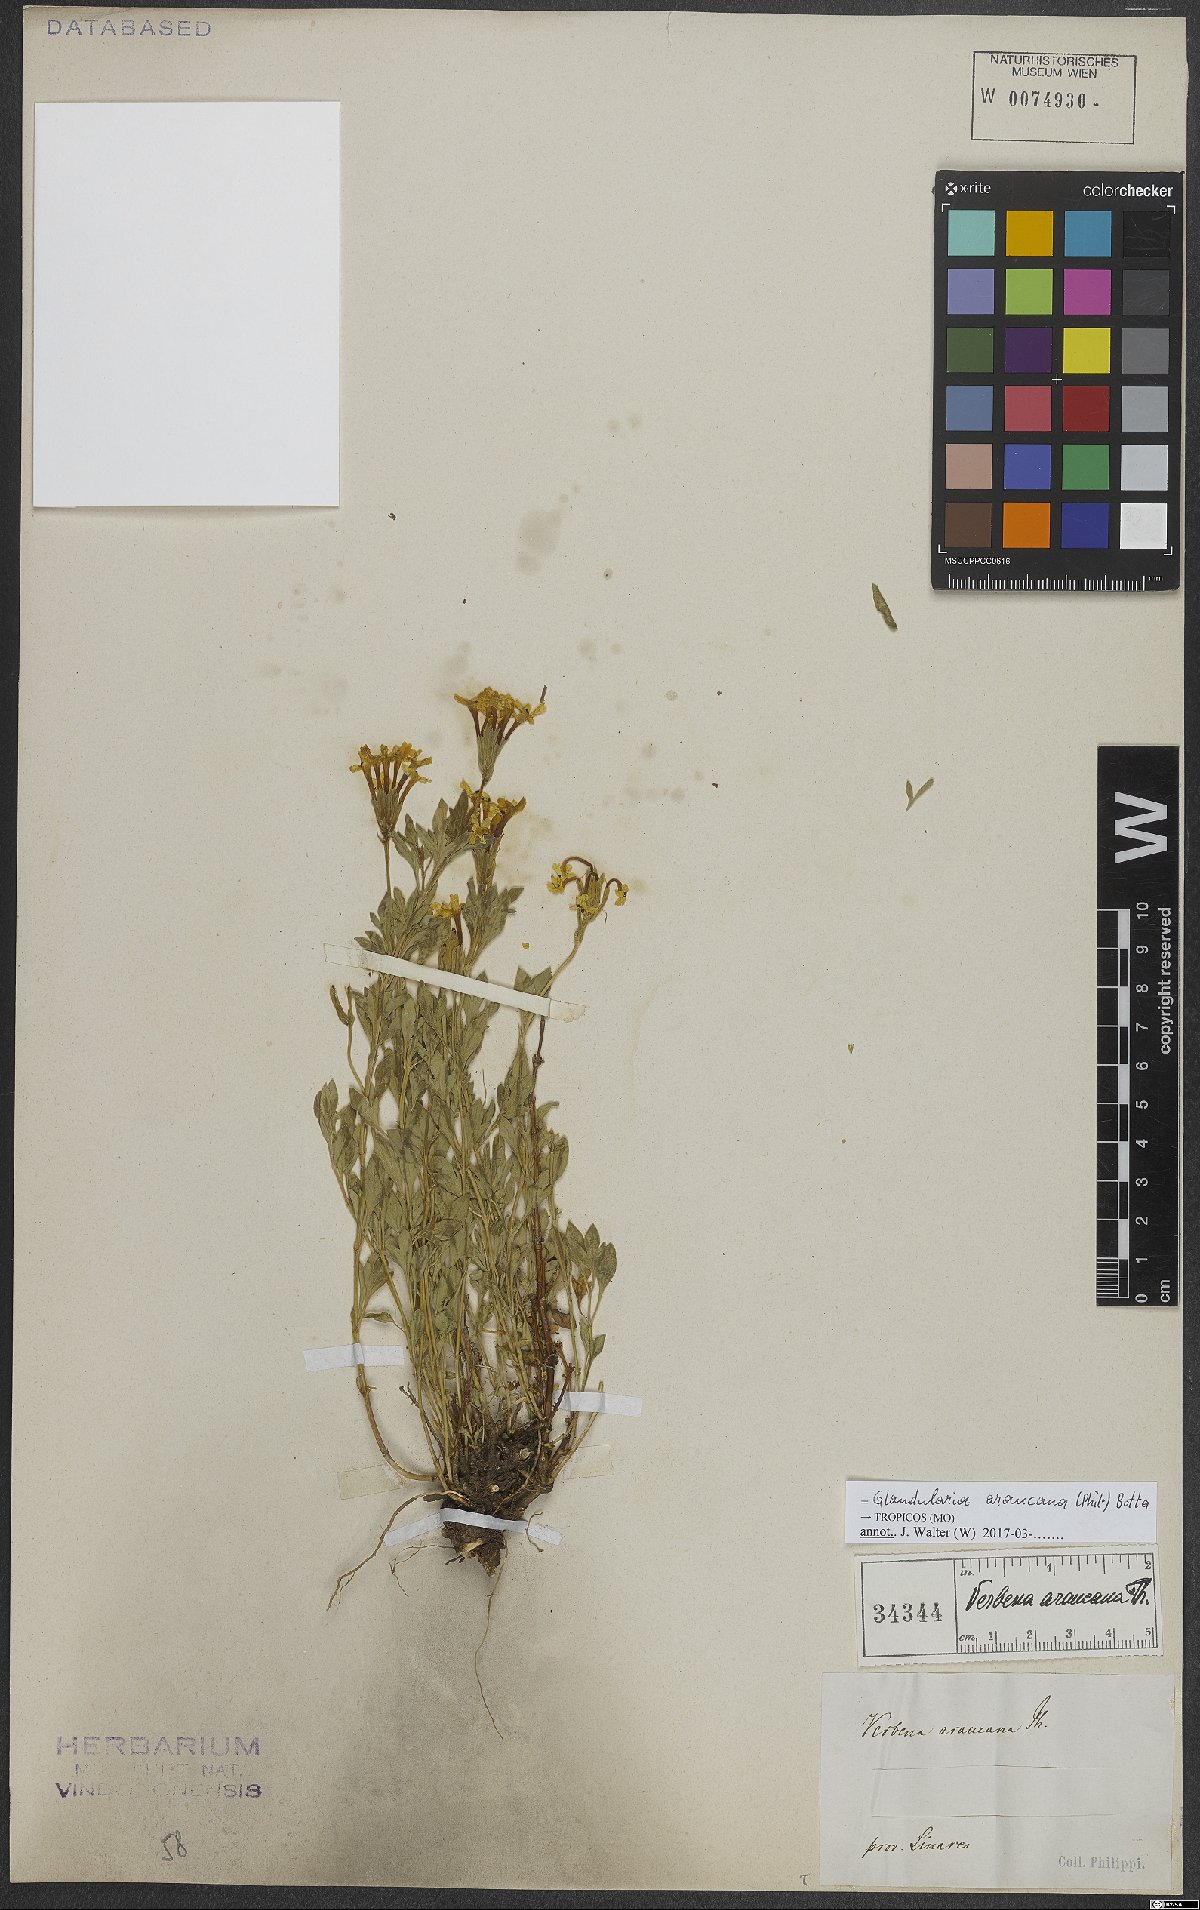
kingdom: Plantae
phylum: Tracheophyta
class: Magnoliopsida
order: Lamiales
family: Verbenaceae
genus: Verbena
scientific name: Verbena araucana
